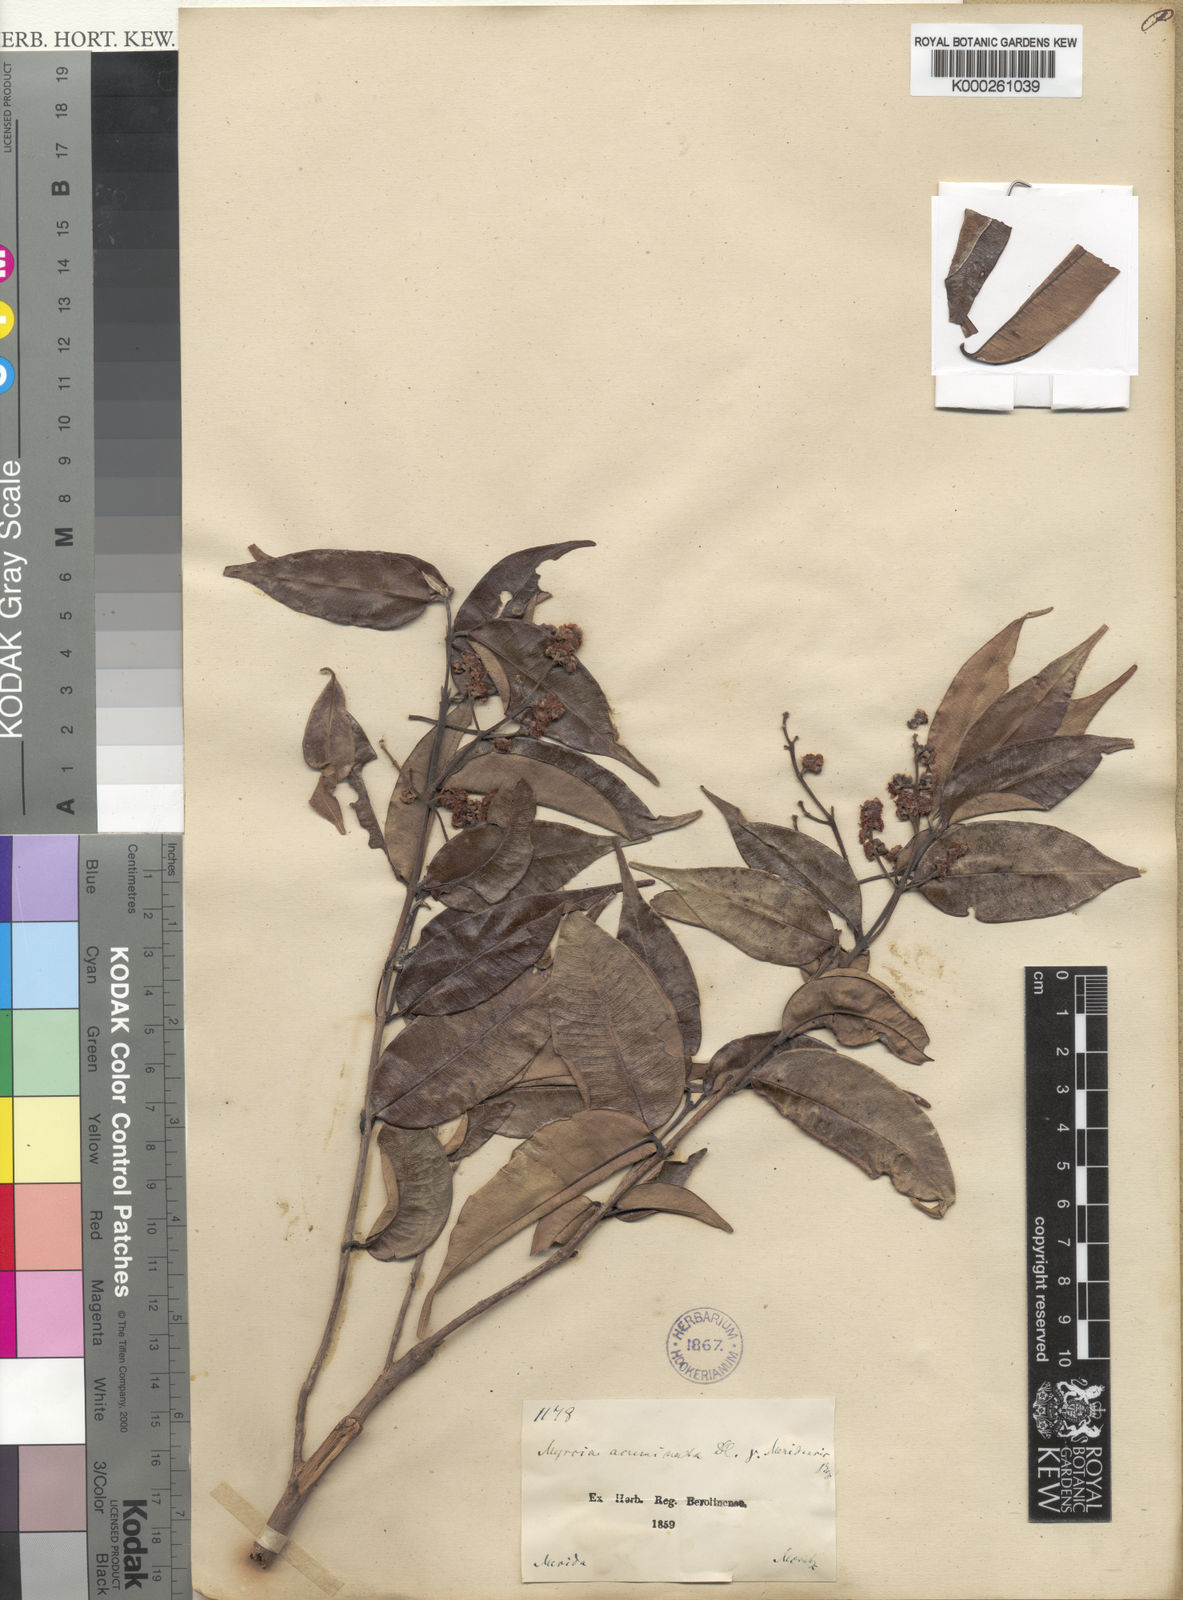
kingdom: Plantae
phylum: Tracheophyta
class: Magnoliopsida
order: Myrtales
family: Myrtaceae
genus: Myrcia
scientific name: Myrcia splendens
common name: Surinam cherry
